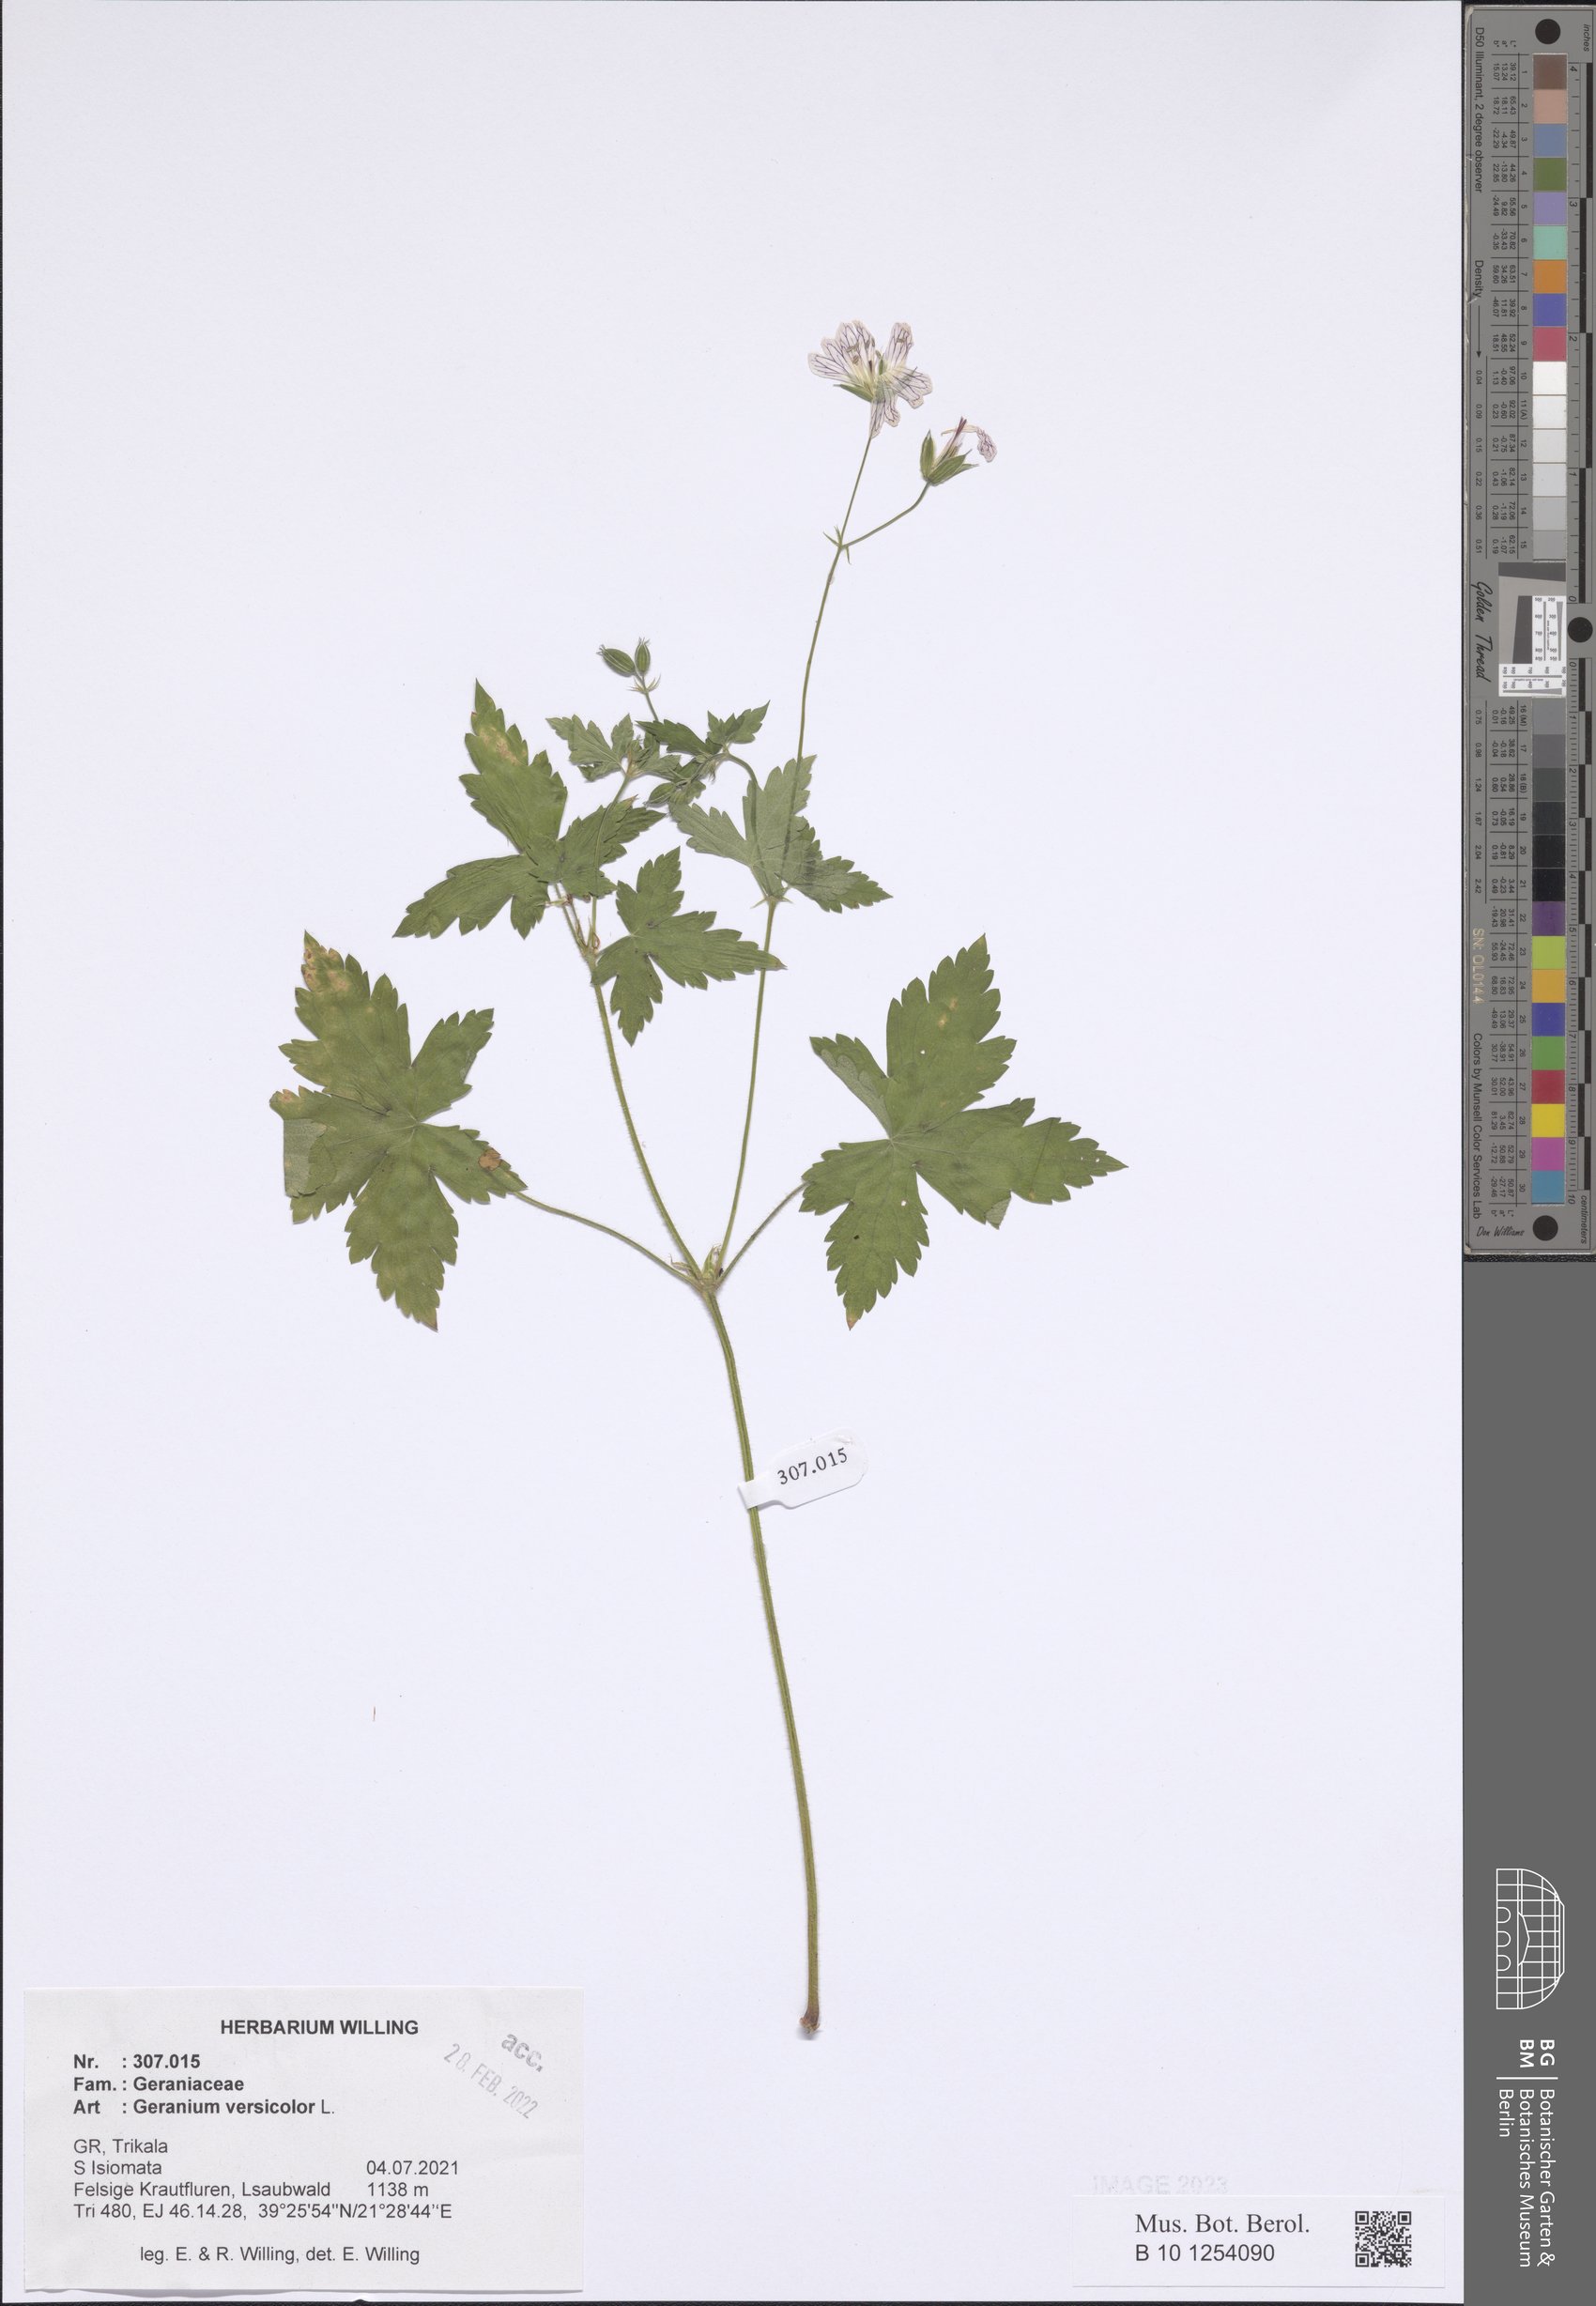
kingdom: Plantae
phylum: Tracheophyta
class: Magnoliopsida
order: Geraniales
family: Geraniaceae
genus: Geranium
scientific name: Geranium versicolor
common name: Pencilled crane's-bill
